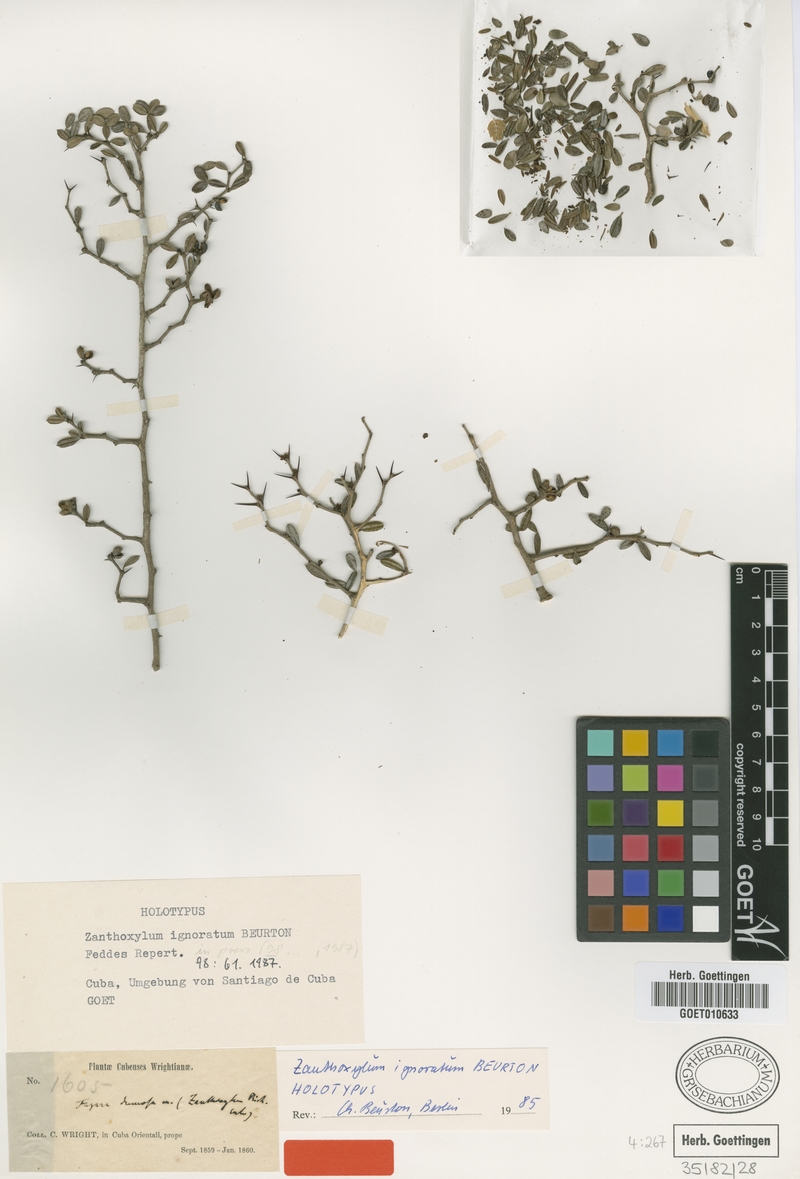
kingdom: Plantae
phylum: Tracheophyta
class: Magnoliopsida
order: Sapindales
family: Rutaceae
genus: Zanthoxylum
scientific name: Zanthoxylum dumosum
